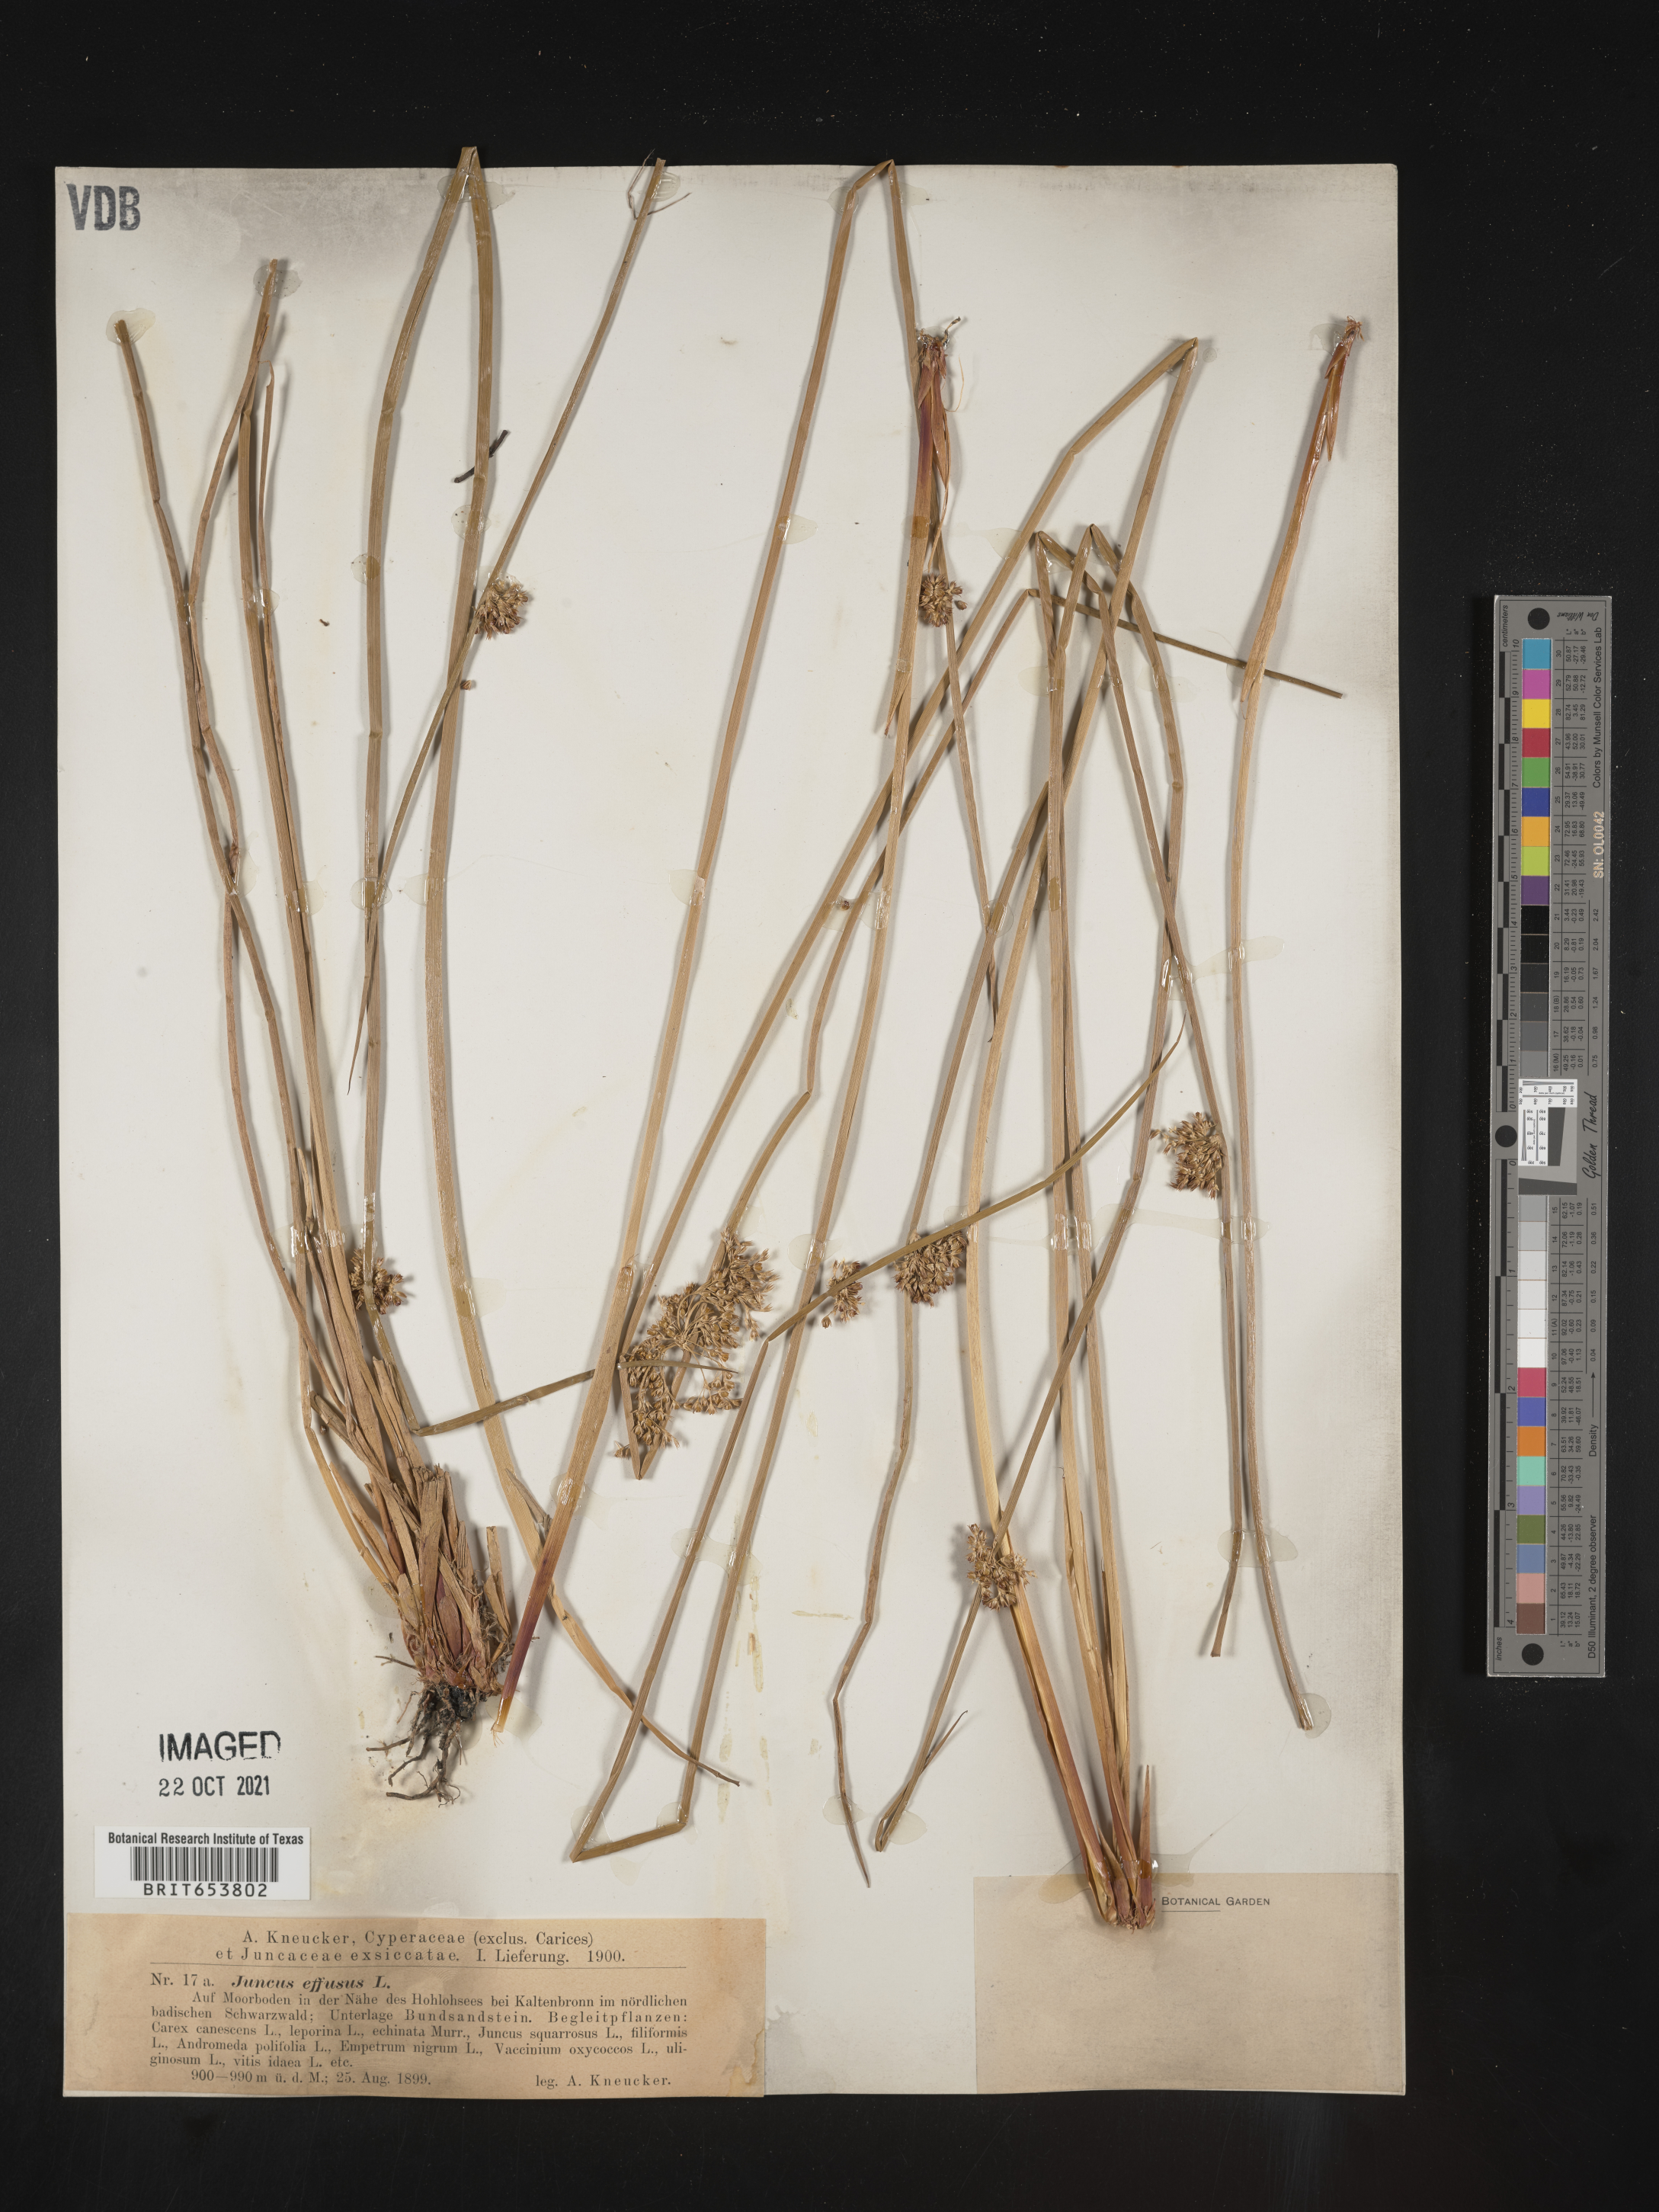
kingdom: Plantae
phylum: Tracheophyta
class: Liliopsida
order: Poales
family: Juncaceae
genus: Juncus
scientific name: Juncus
